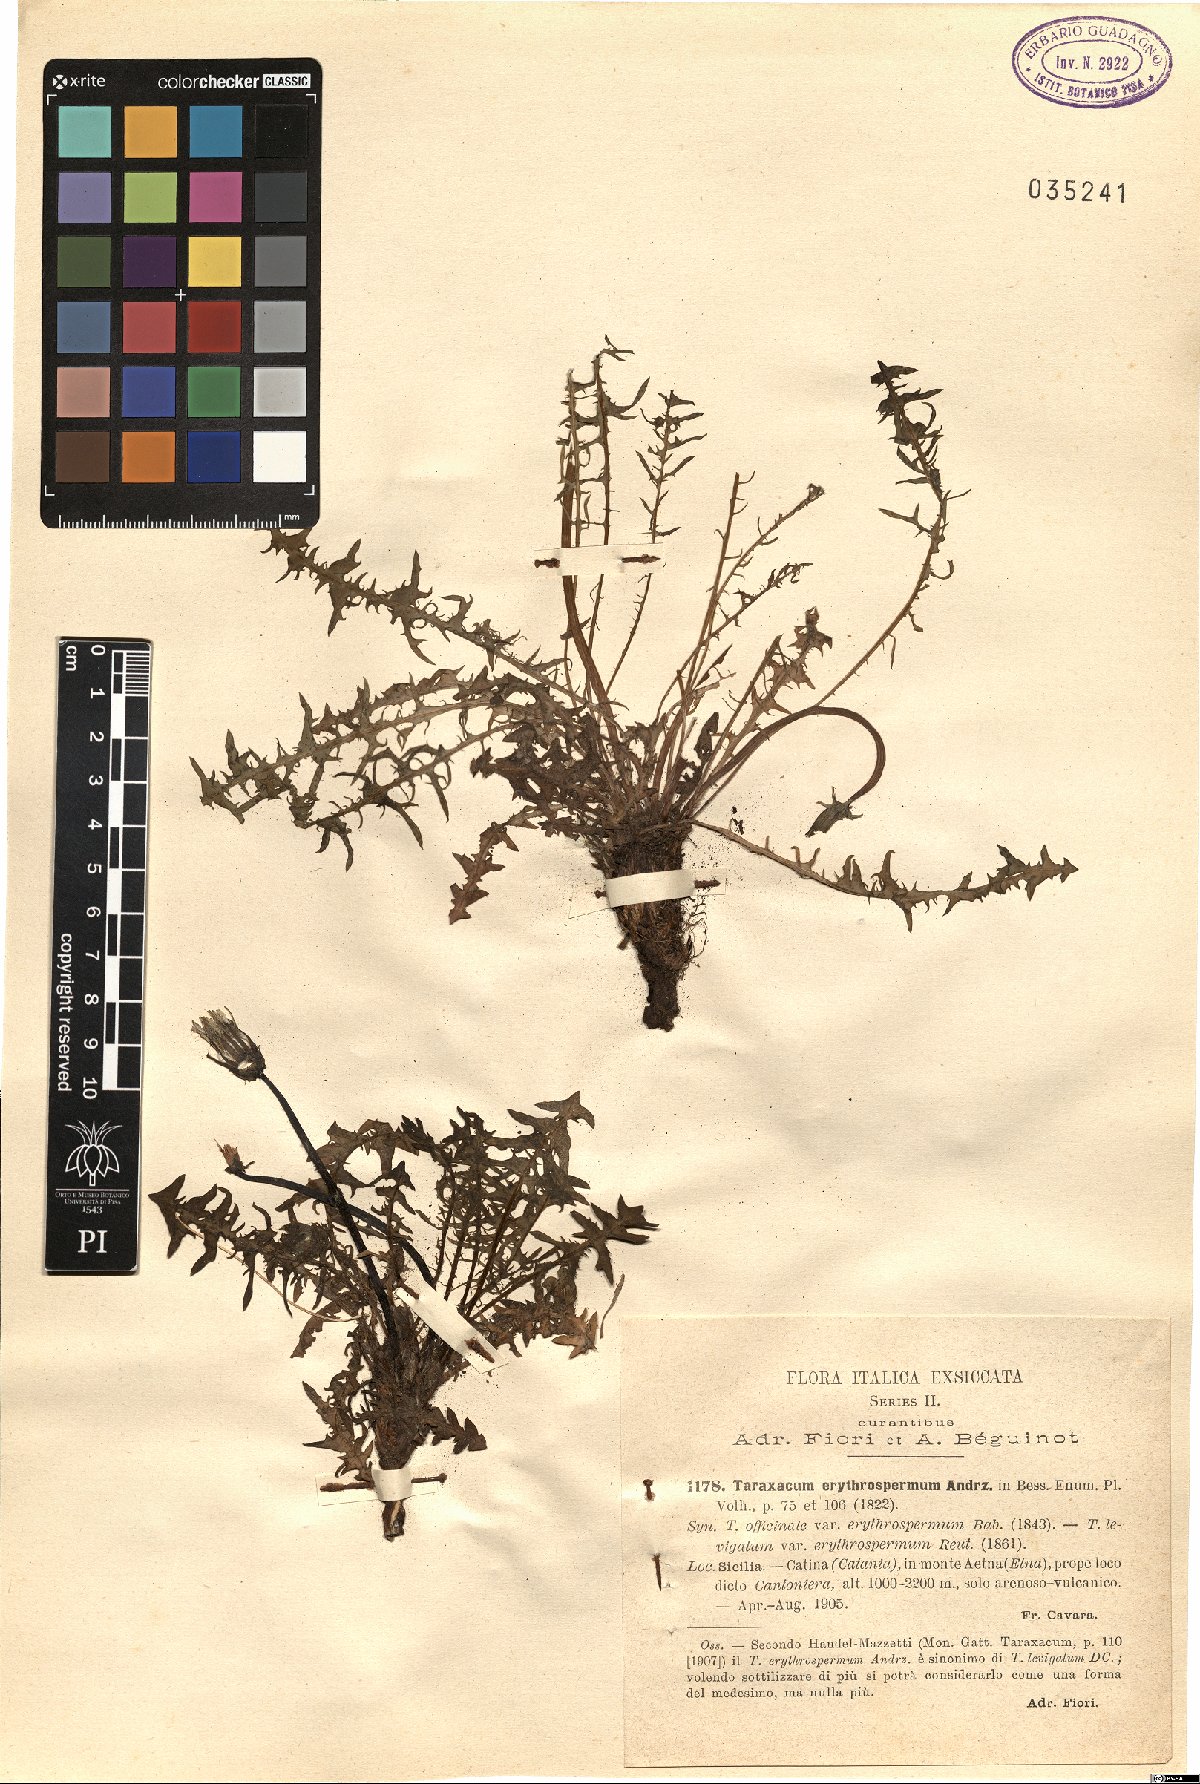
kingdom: Plantae
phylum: Tracheophyta
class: Magnoliopsida
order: Asterales
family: Asteraceae
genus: Taraxacum
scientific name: Taraxacum erythrospermum
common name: Rock dandelion
